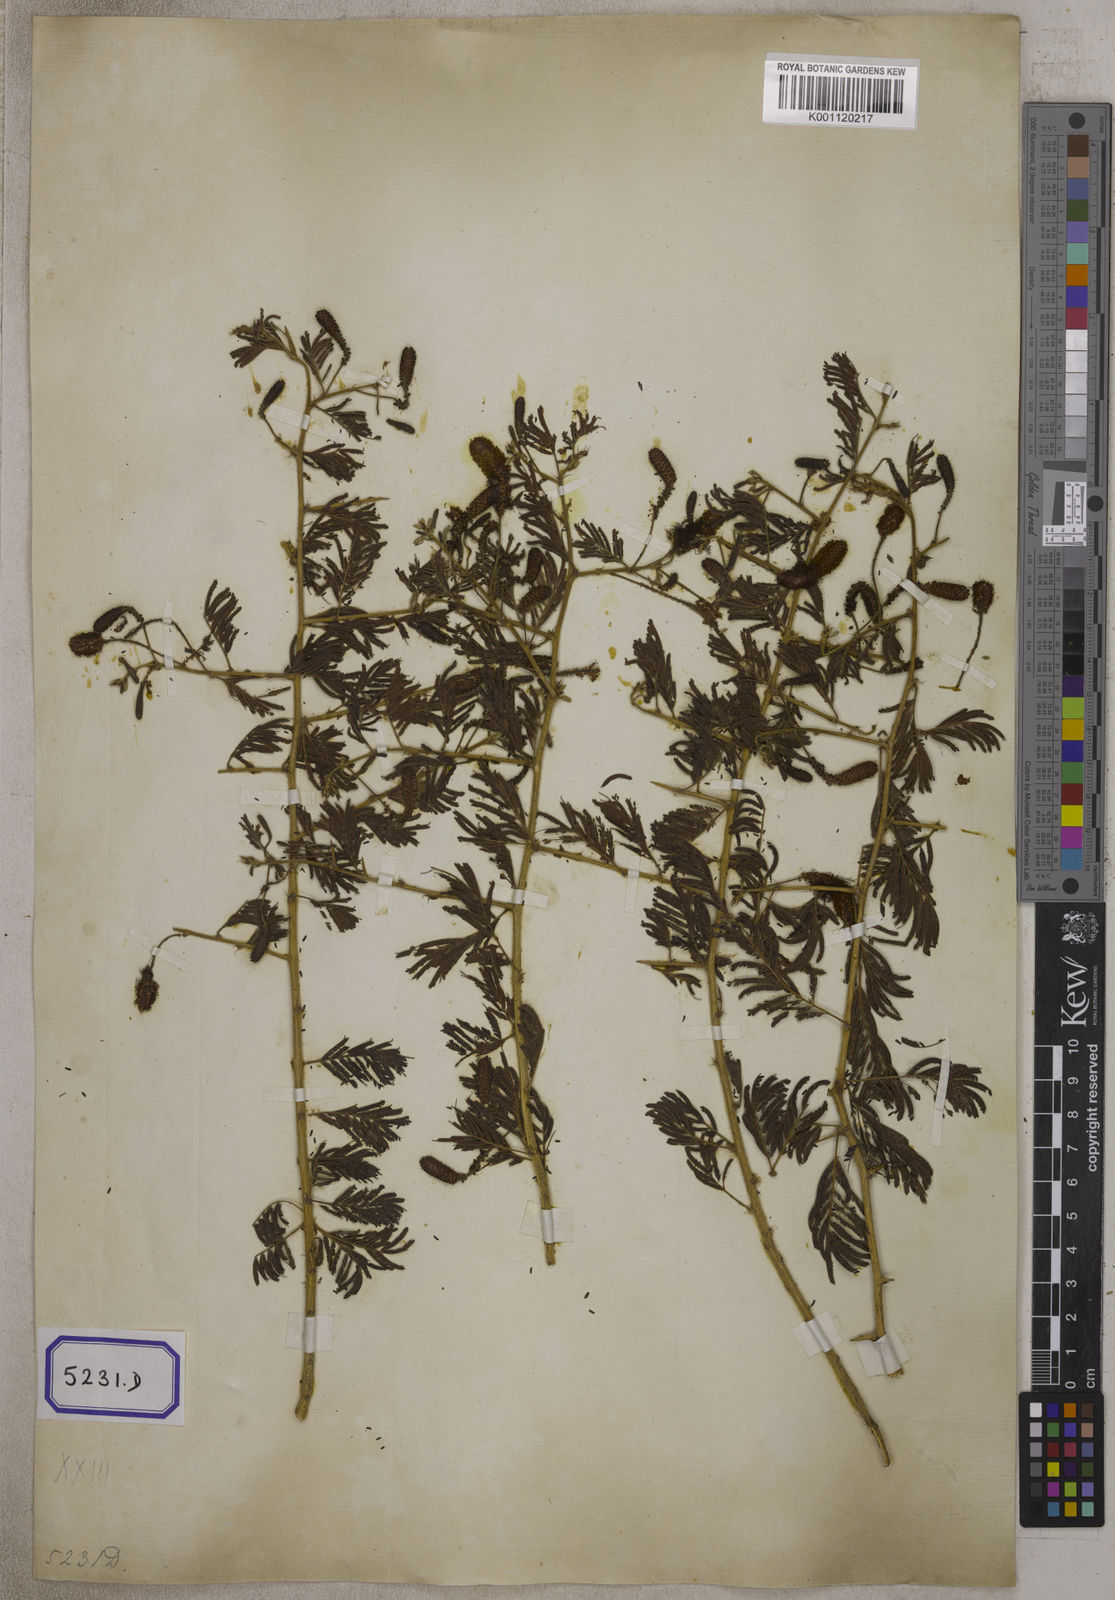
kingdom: Plantae
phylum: Tracheophyta
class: Magnoliopsida
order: Fabales
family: Fabaceae
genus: Dichrostachys
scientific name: Dichrostachys cinerea
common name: Sicklebush
